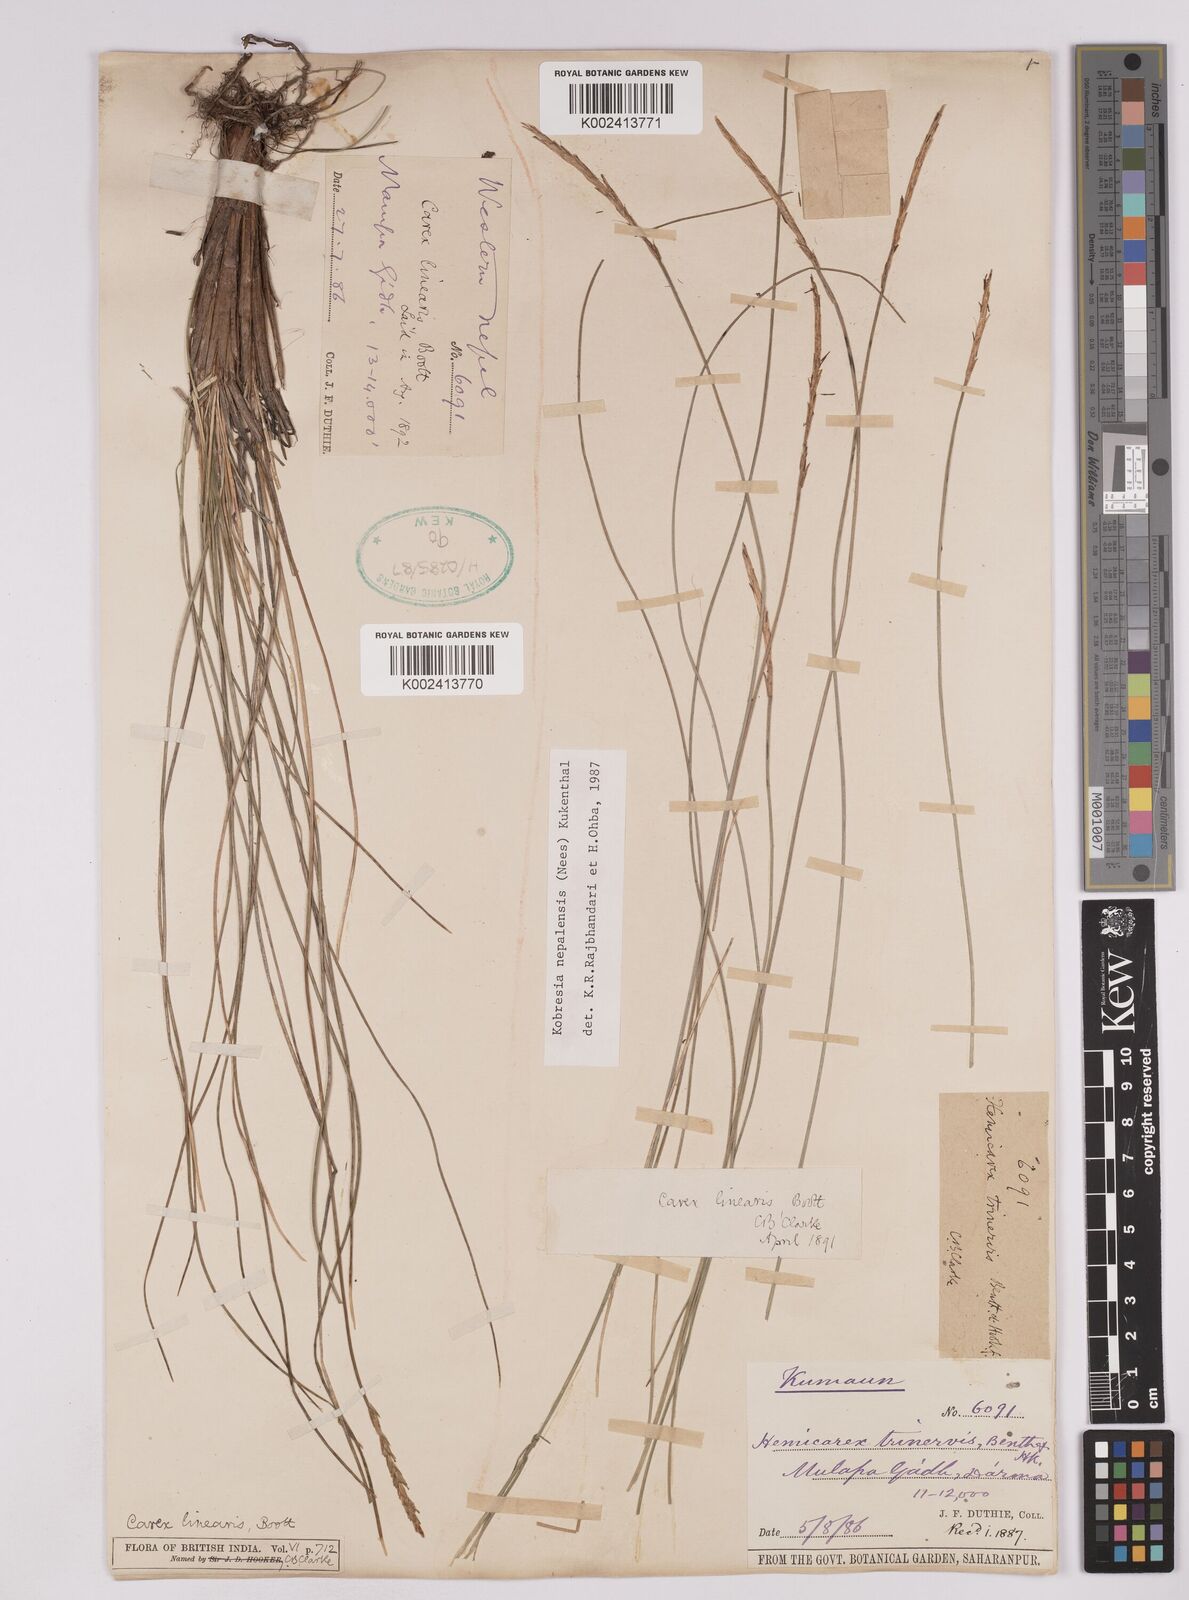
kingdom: Plantae
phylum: Tracheophyta
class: Liliopsida
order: Poales
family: Cyperaceae
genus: Carex
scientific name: Carex esenbeckii
